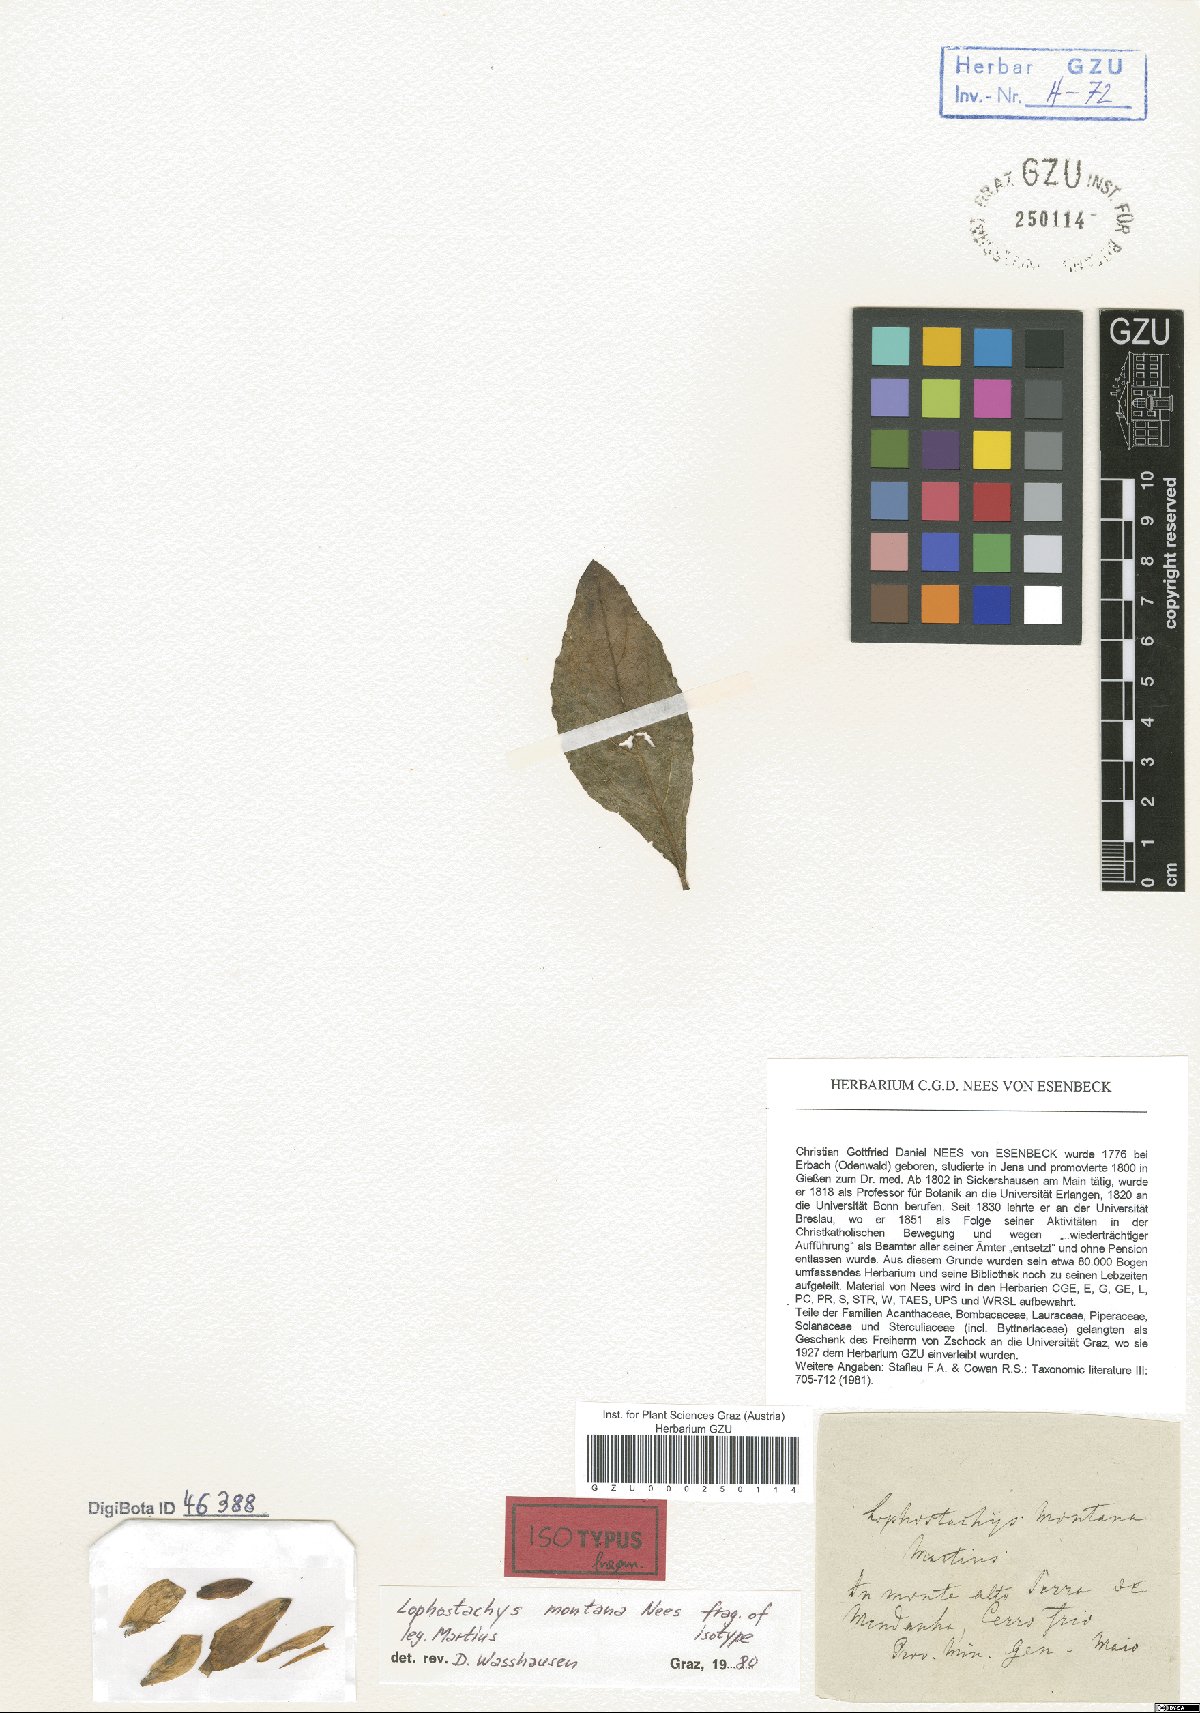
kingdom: Plantae
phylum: Tracheophyta
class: Magnoliopsida
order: Lamiales
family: Acanthaceae
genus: Lepidagathis
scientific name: Lepidagathis montana
